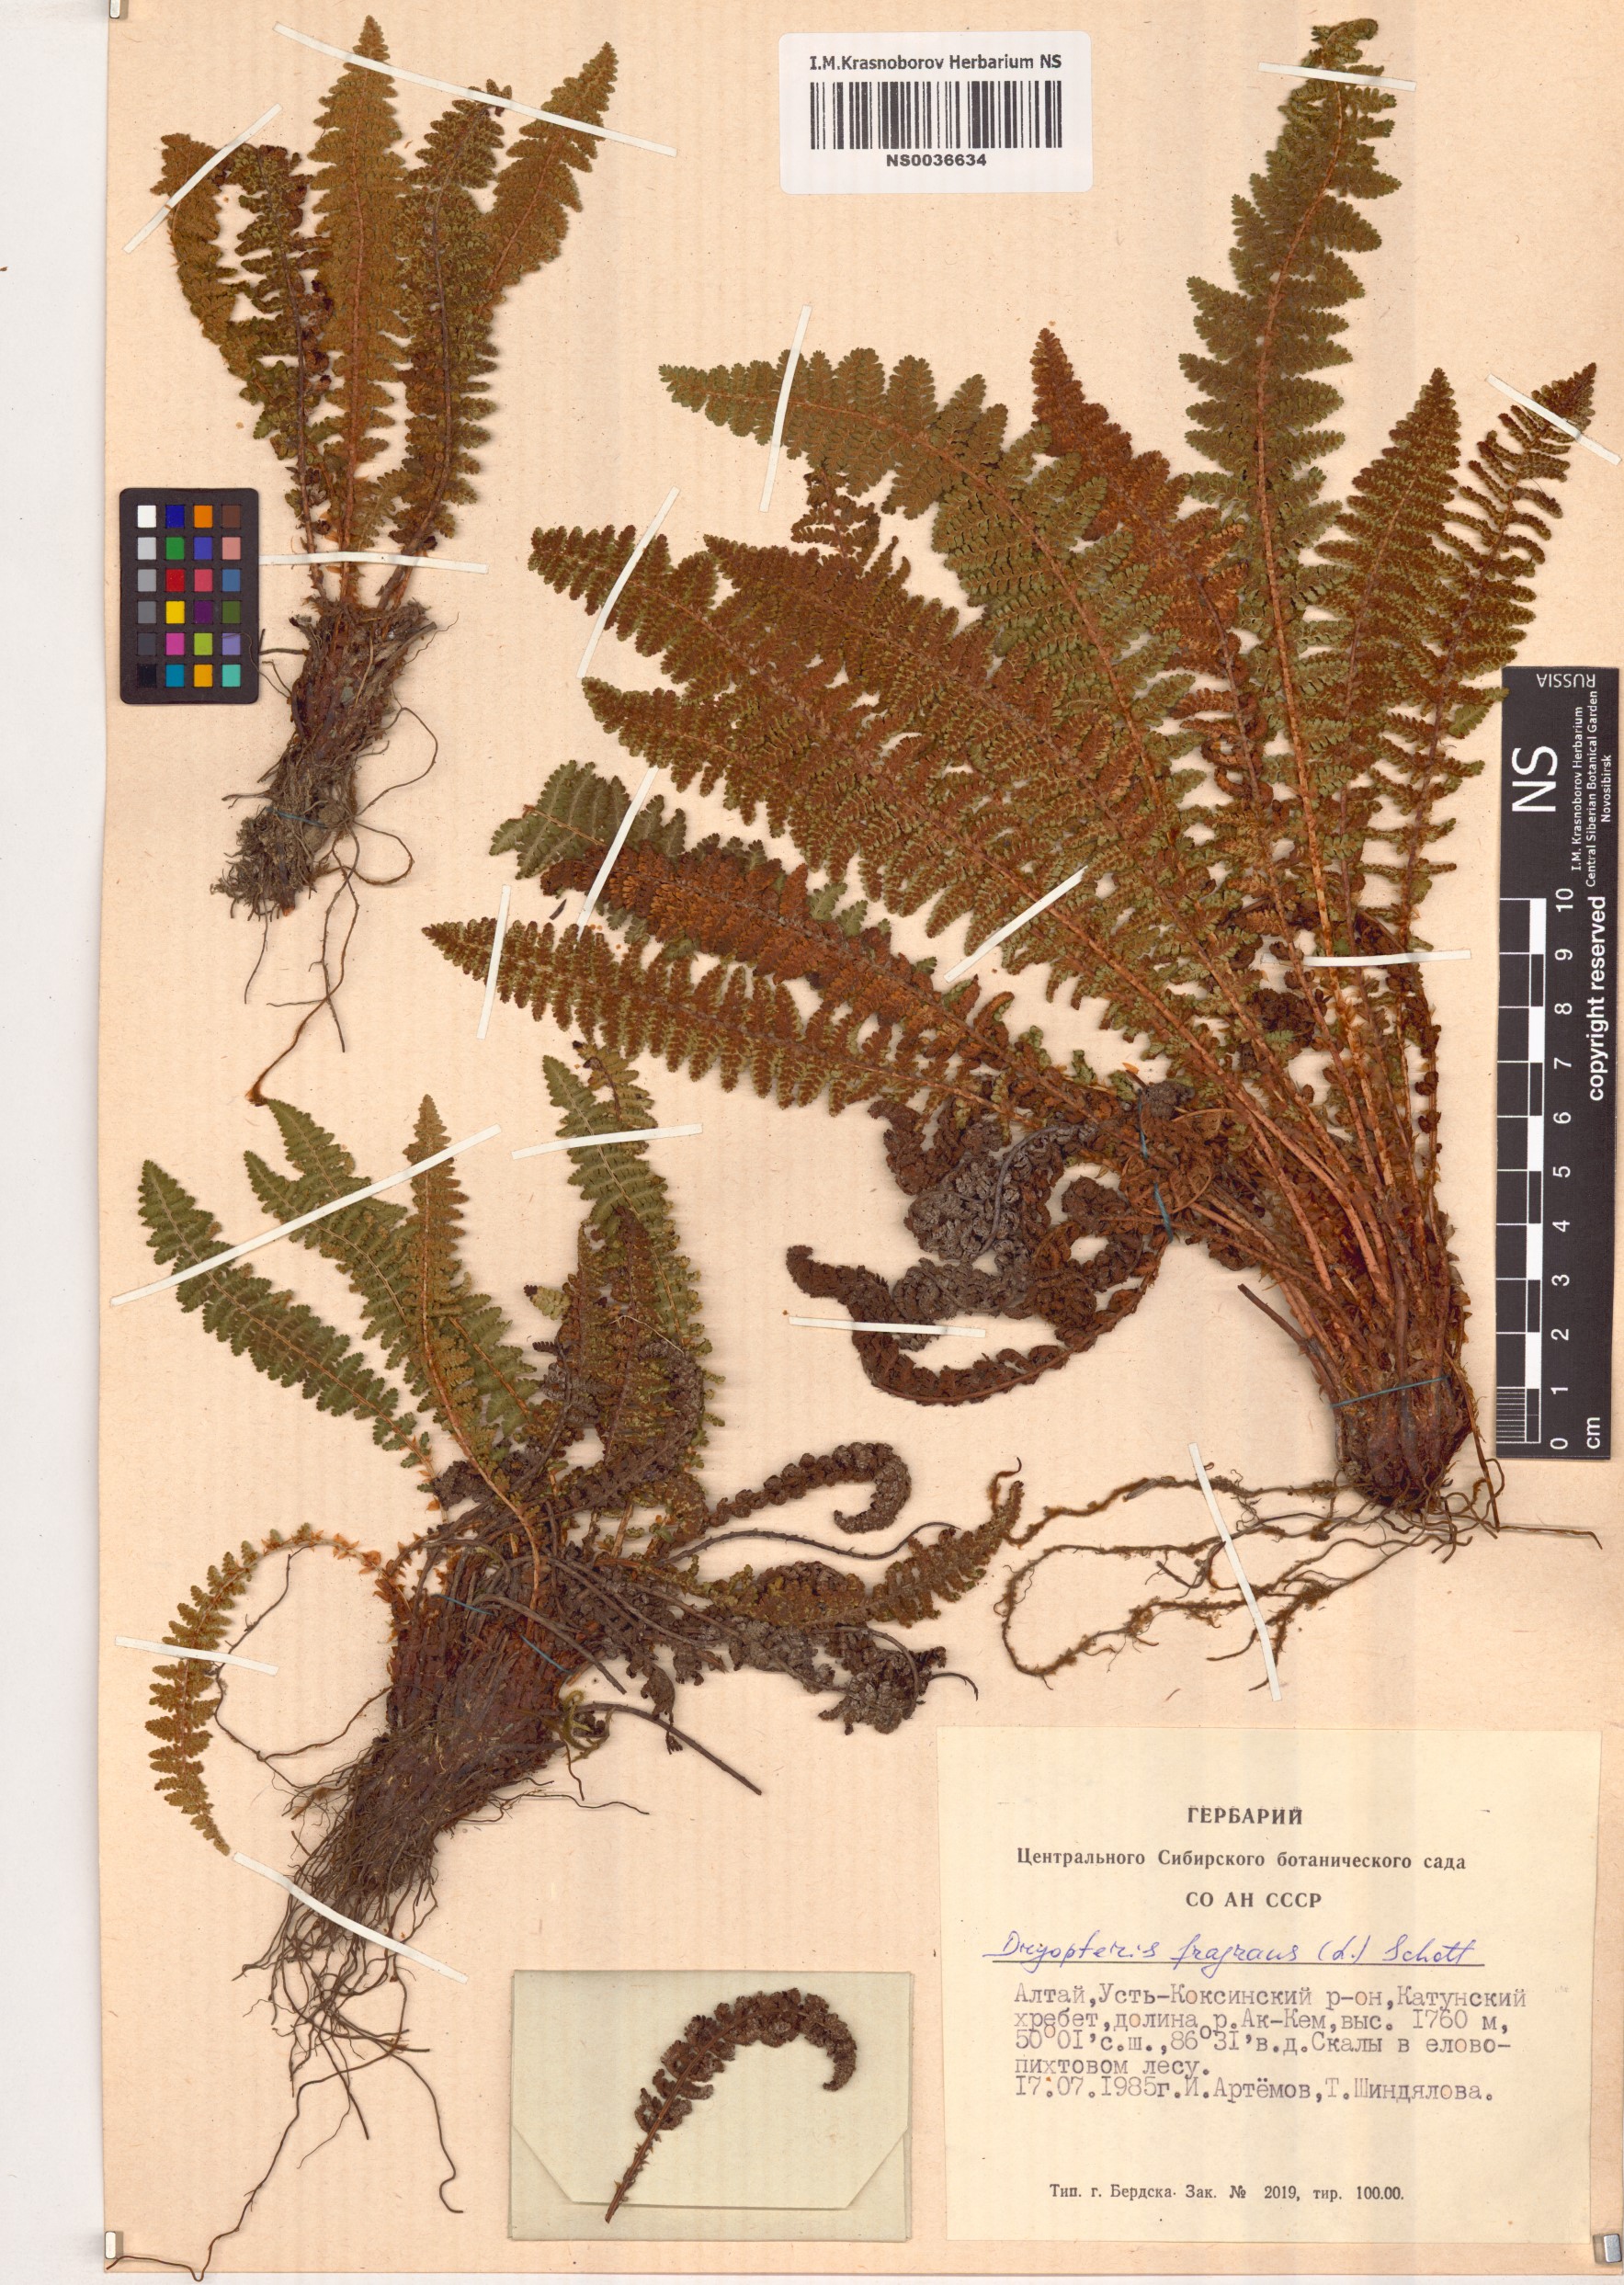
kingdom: Plantae
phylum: Tracheophyta
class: Polypodiopsida
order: Polypodiales
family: Dryopteridaceae
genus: Dryopteris
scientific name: Dryopteris fragrans
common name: Fragrant wood fern
